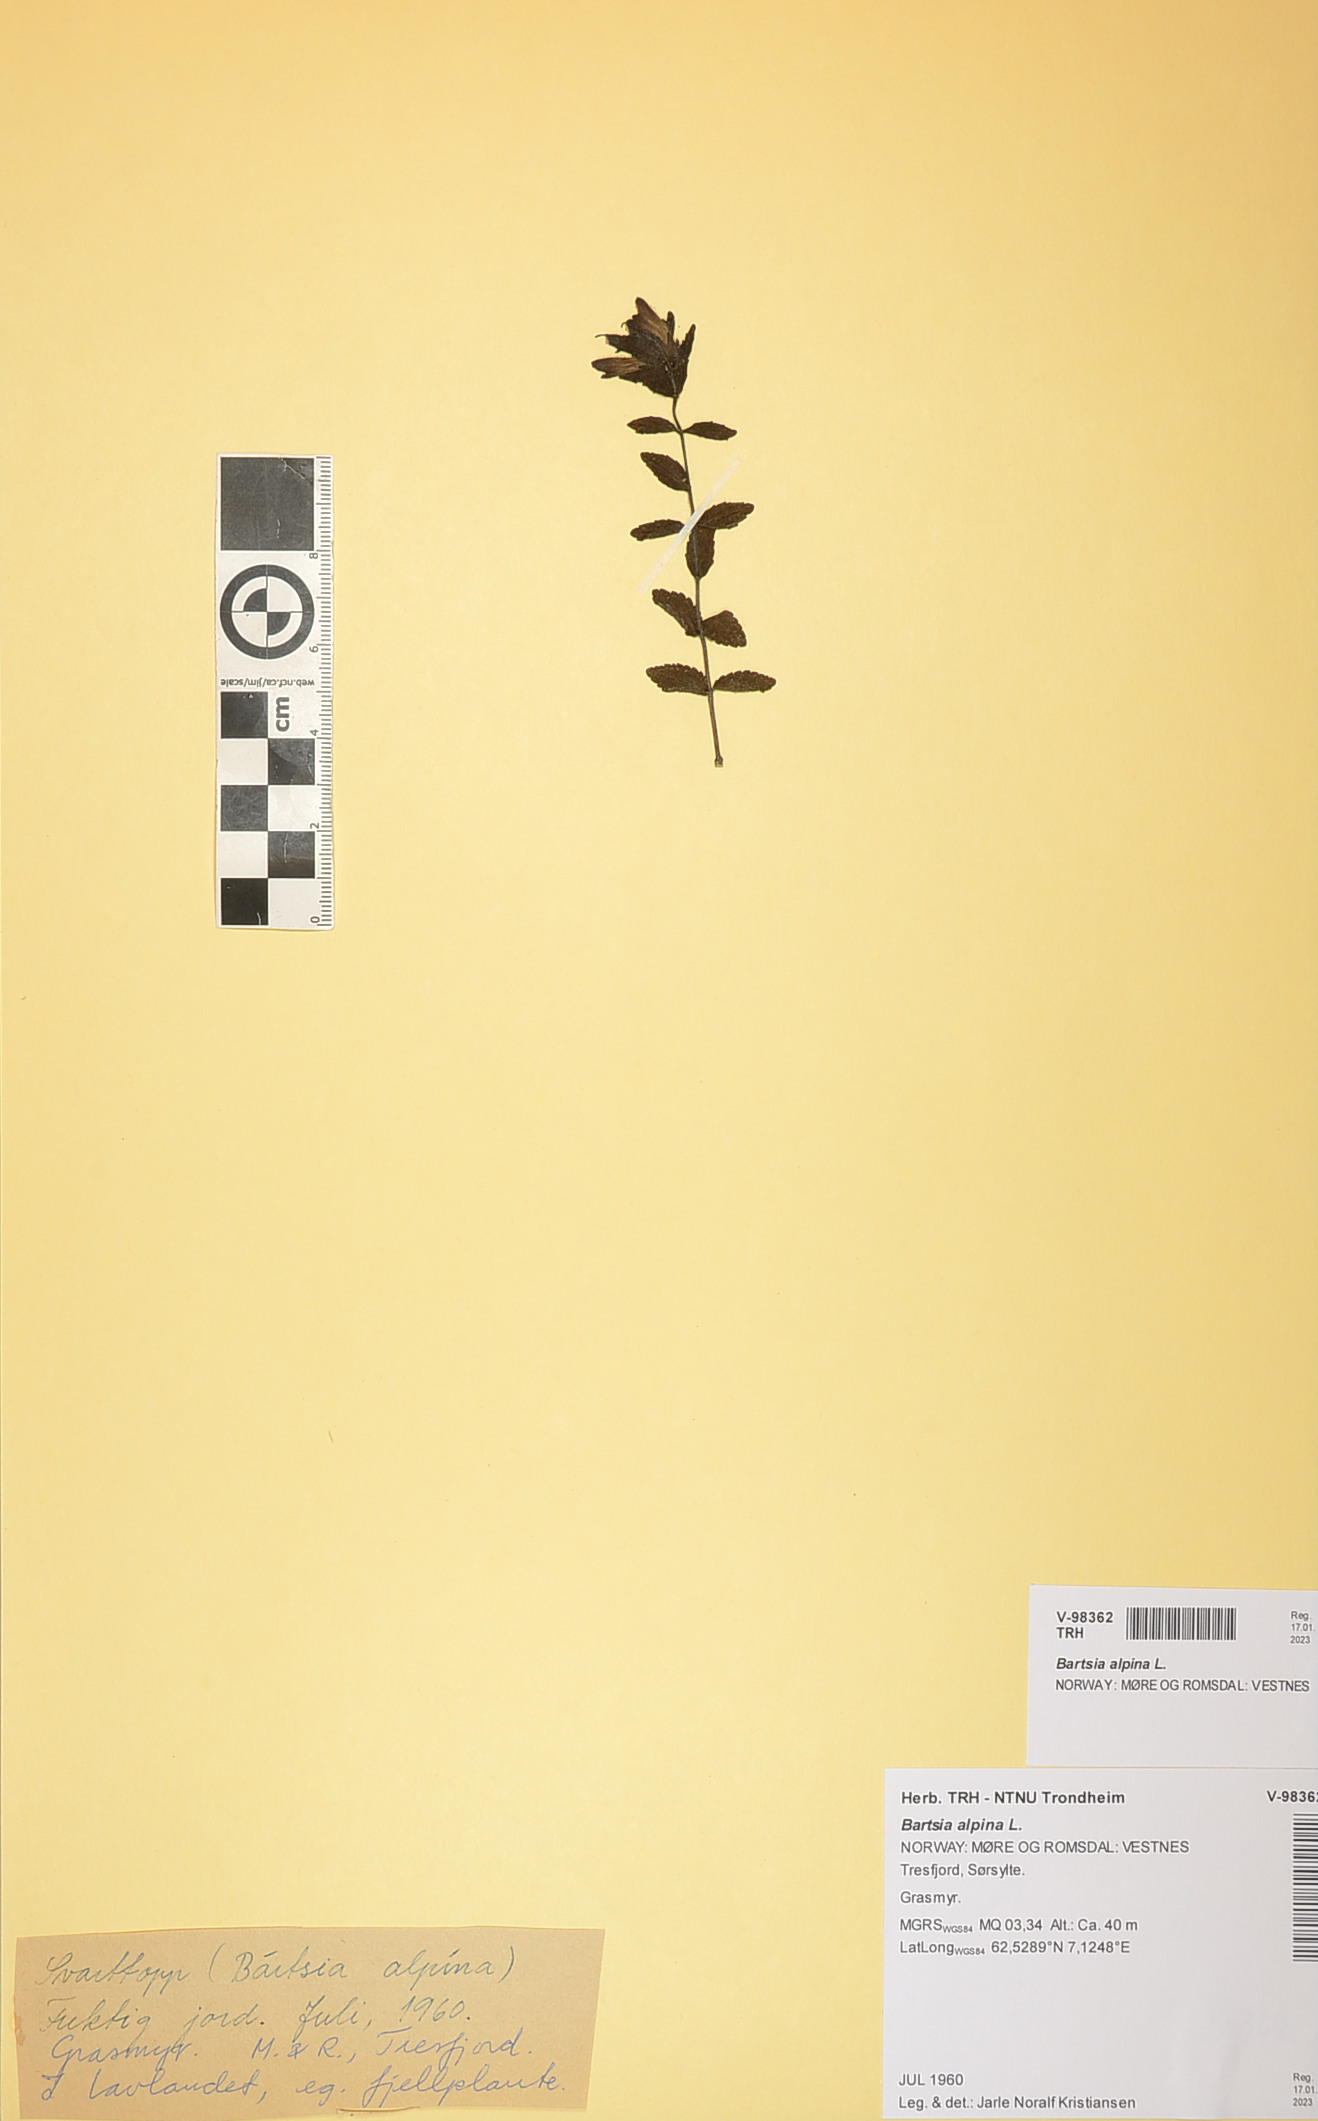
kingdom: Plantae
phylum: Tracheophyta
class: Magnoliopsida
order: Lamiales
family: Orobanchaceae
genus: Bartsia
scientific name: Bartsia alpina
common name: Alpine bartsia
